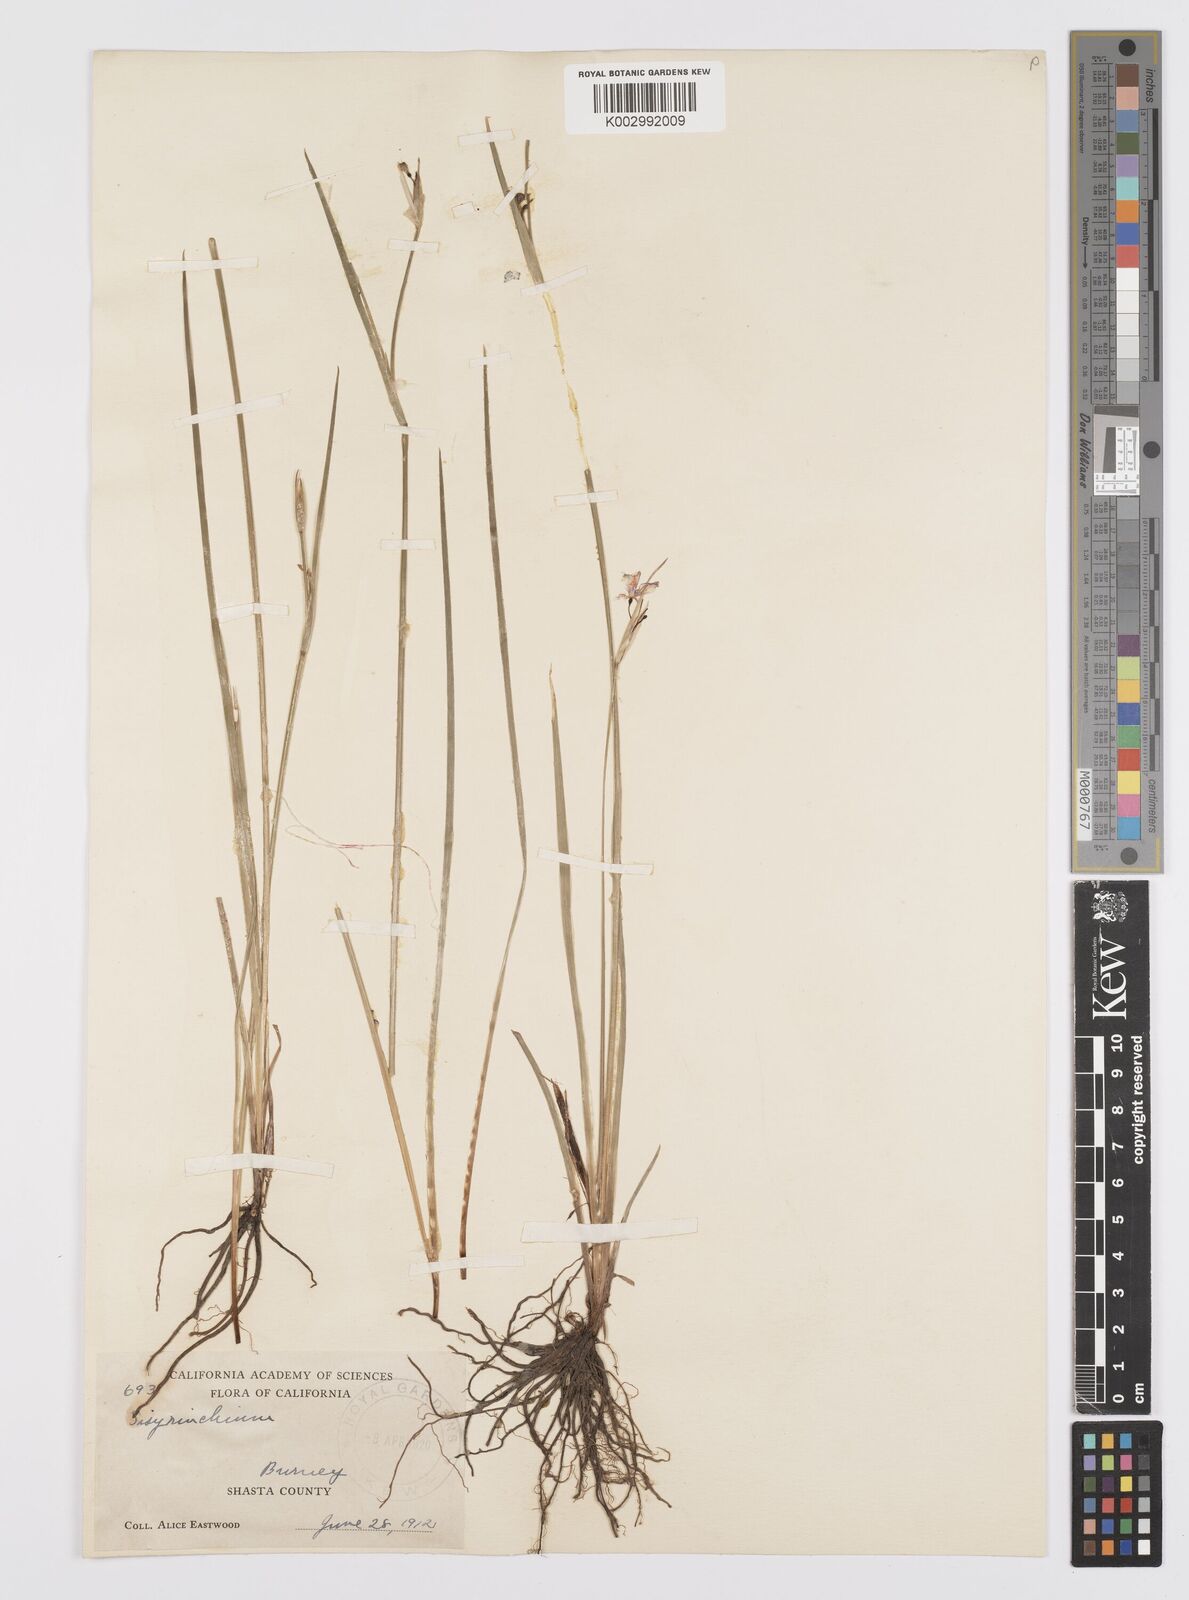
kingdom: Plantae
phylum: Tracheophyta
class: Liliopsida
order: Asparagales
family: Iridaceae
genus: Sisyrinchium
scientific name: Sisyrinchium
